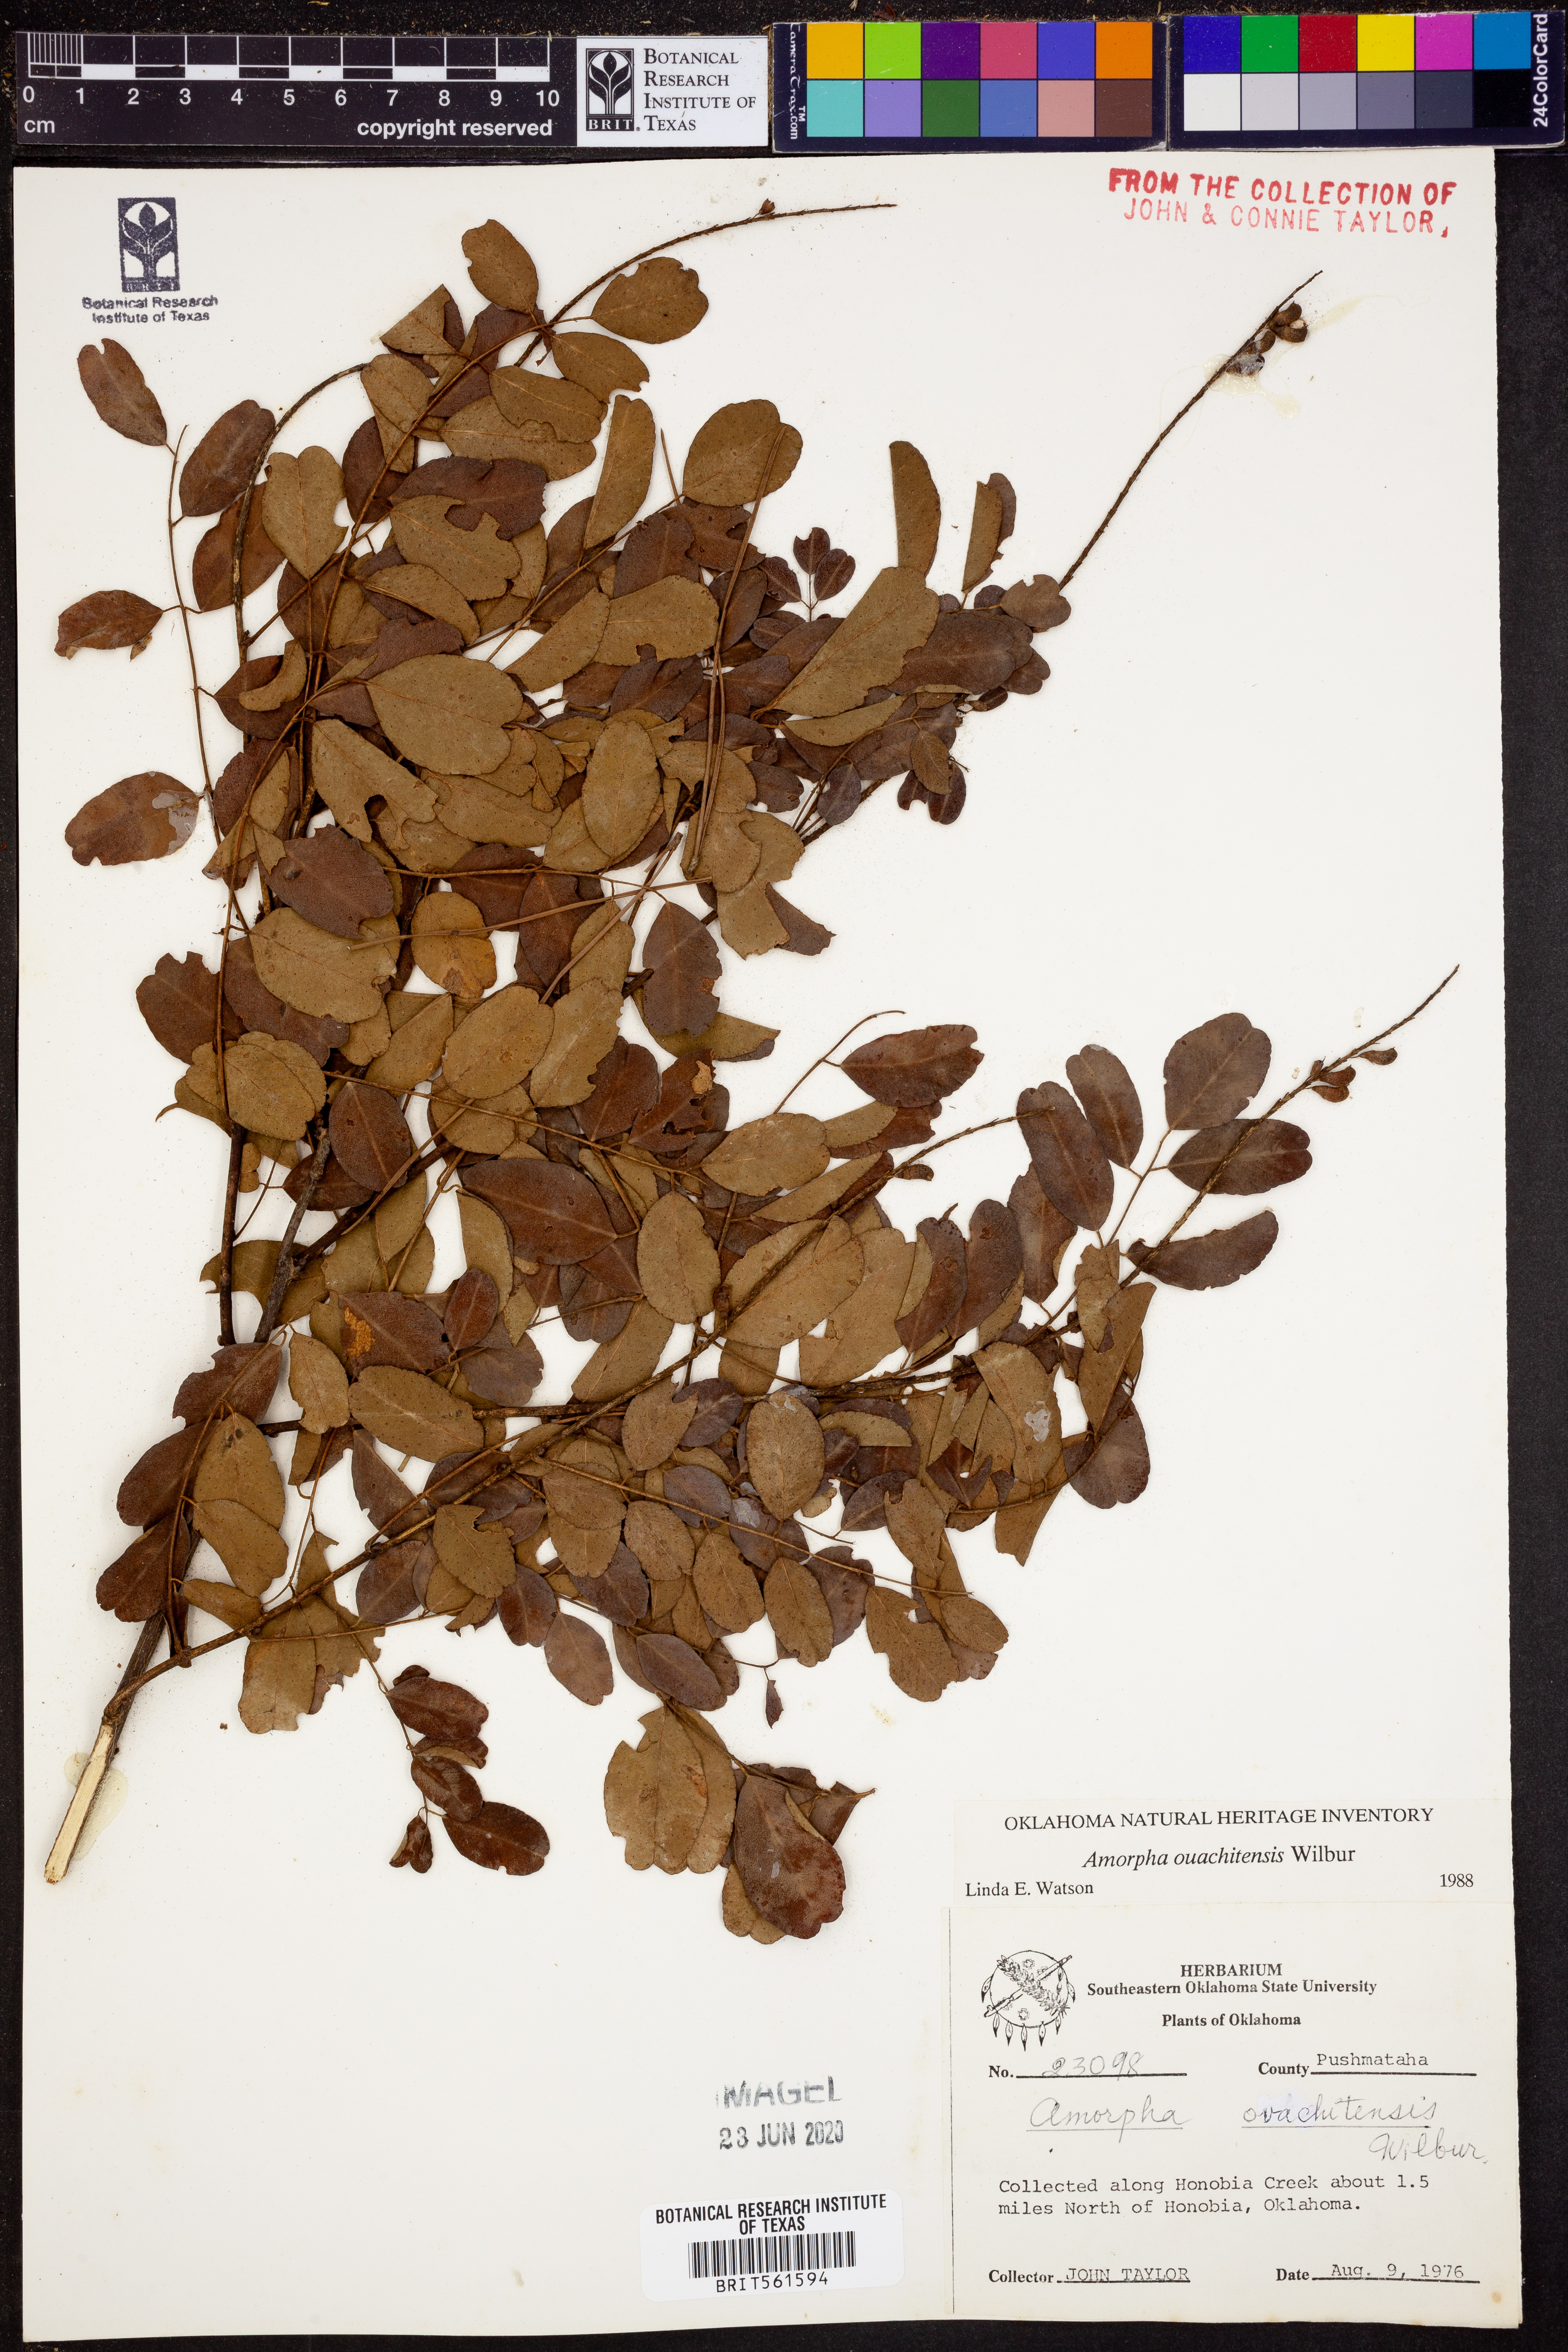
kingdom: Plantae
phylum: Tracheophyta
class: Magnoliopsida
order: Fabales
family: Fabaceae
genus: Amorpha
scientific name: Amorpha ouachitensis
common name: Ouachita false indigo
